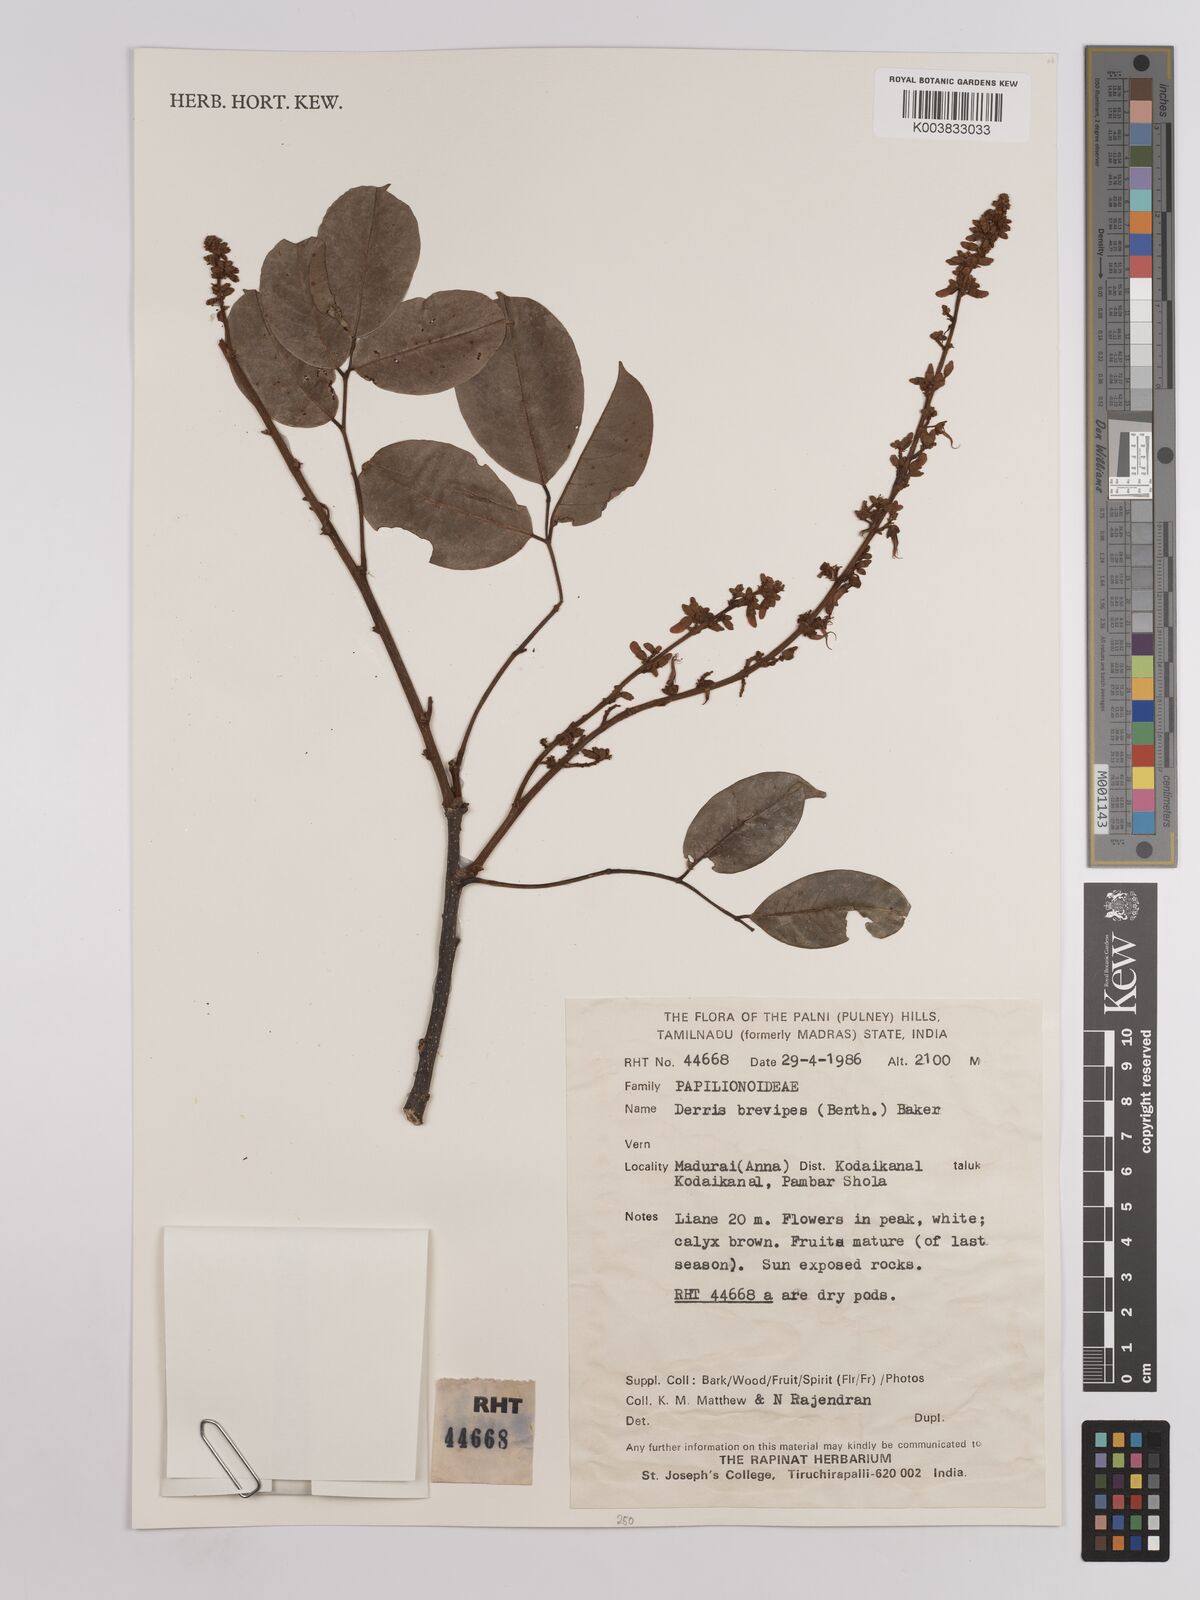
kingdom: Plantae
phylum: Tracheophyta
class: Magnoliopsida
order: Fabales
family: Fabaceae
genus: Derris
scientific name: Derris brevipes
